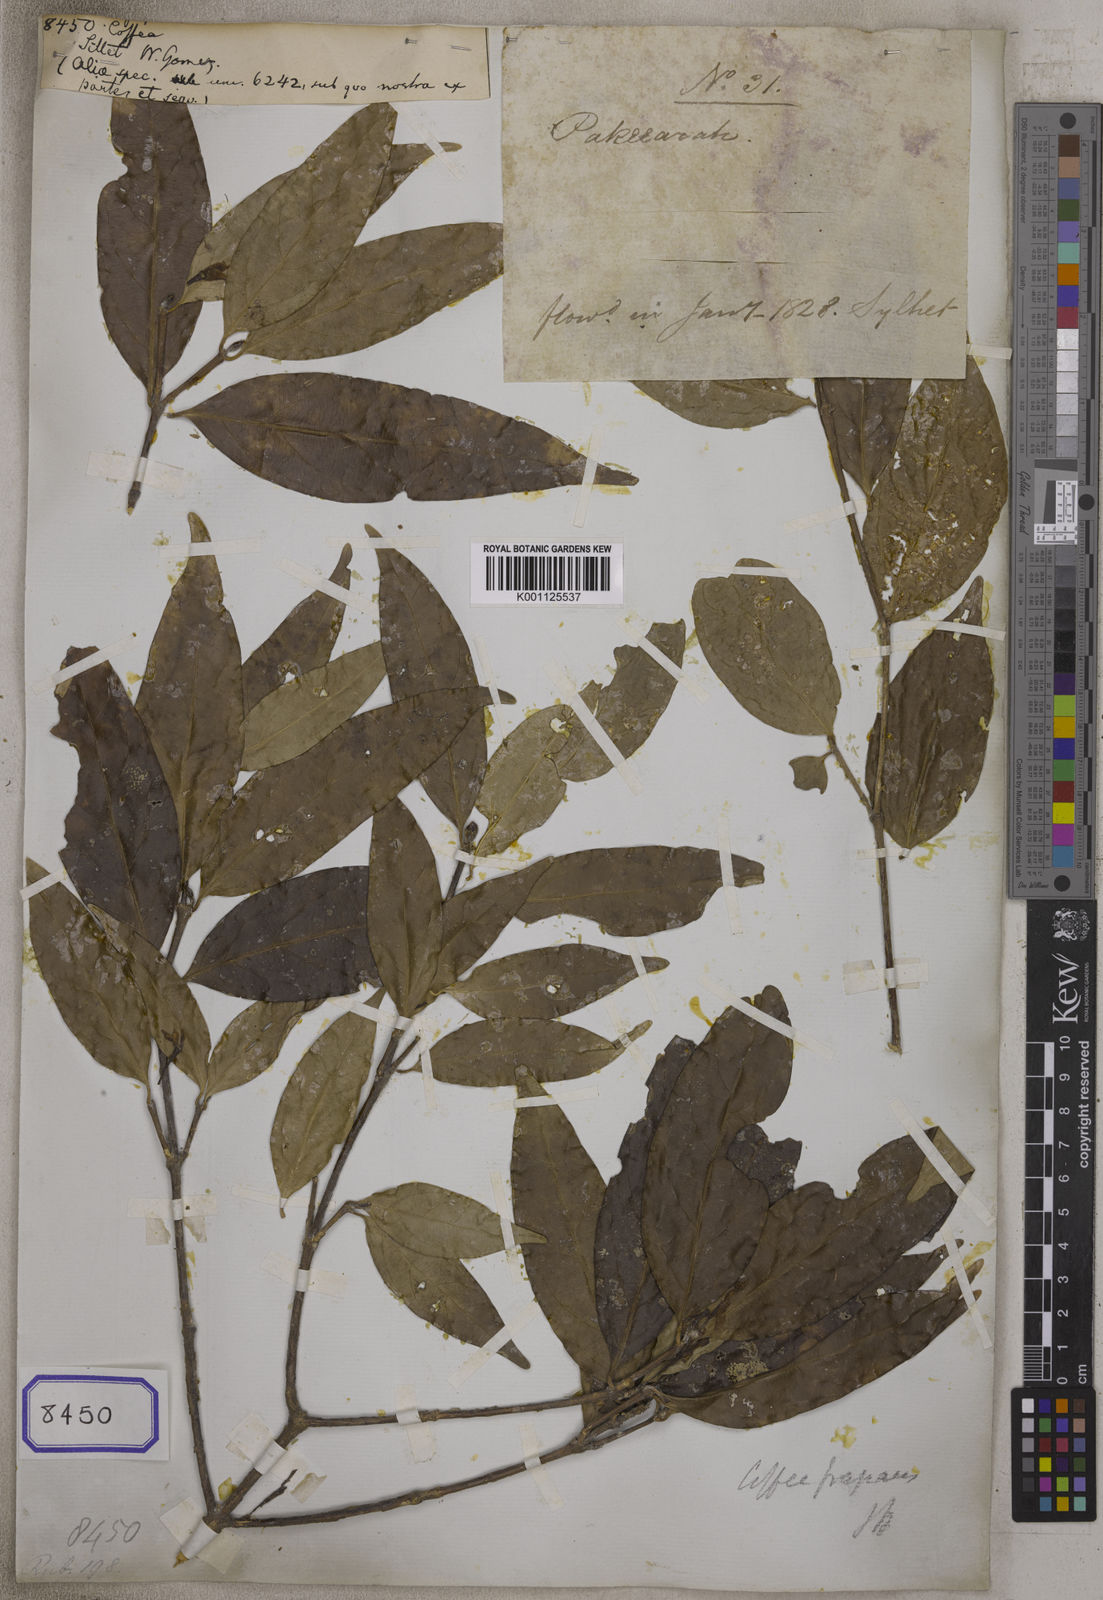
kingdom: Plantae
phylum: Tracheophyta
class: Magnoliopsida
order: Gentianales
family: Rubiaceae
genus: Coffea
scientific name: Coffea
